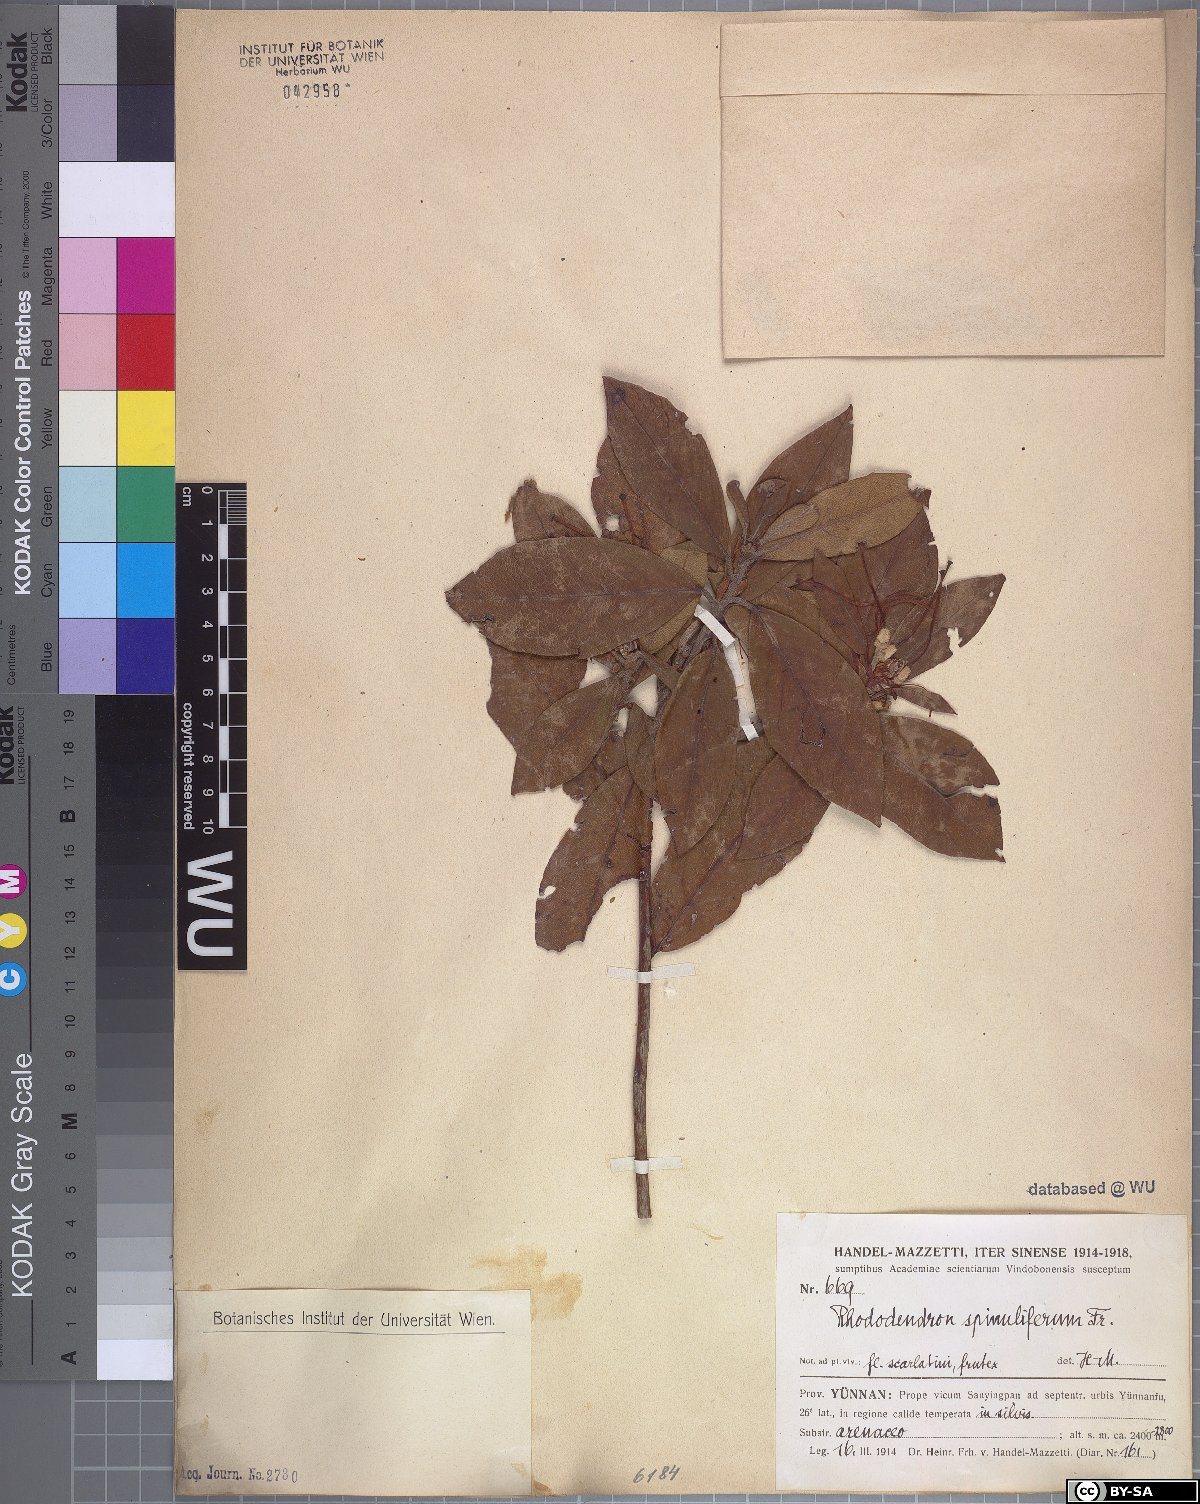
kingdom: Plantae
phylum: Tracheophyta
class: Magnoliopsida
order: Ericales
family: Ericaceae
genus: Rhododendron
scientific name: Rhododendron spinuliferum
